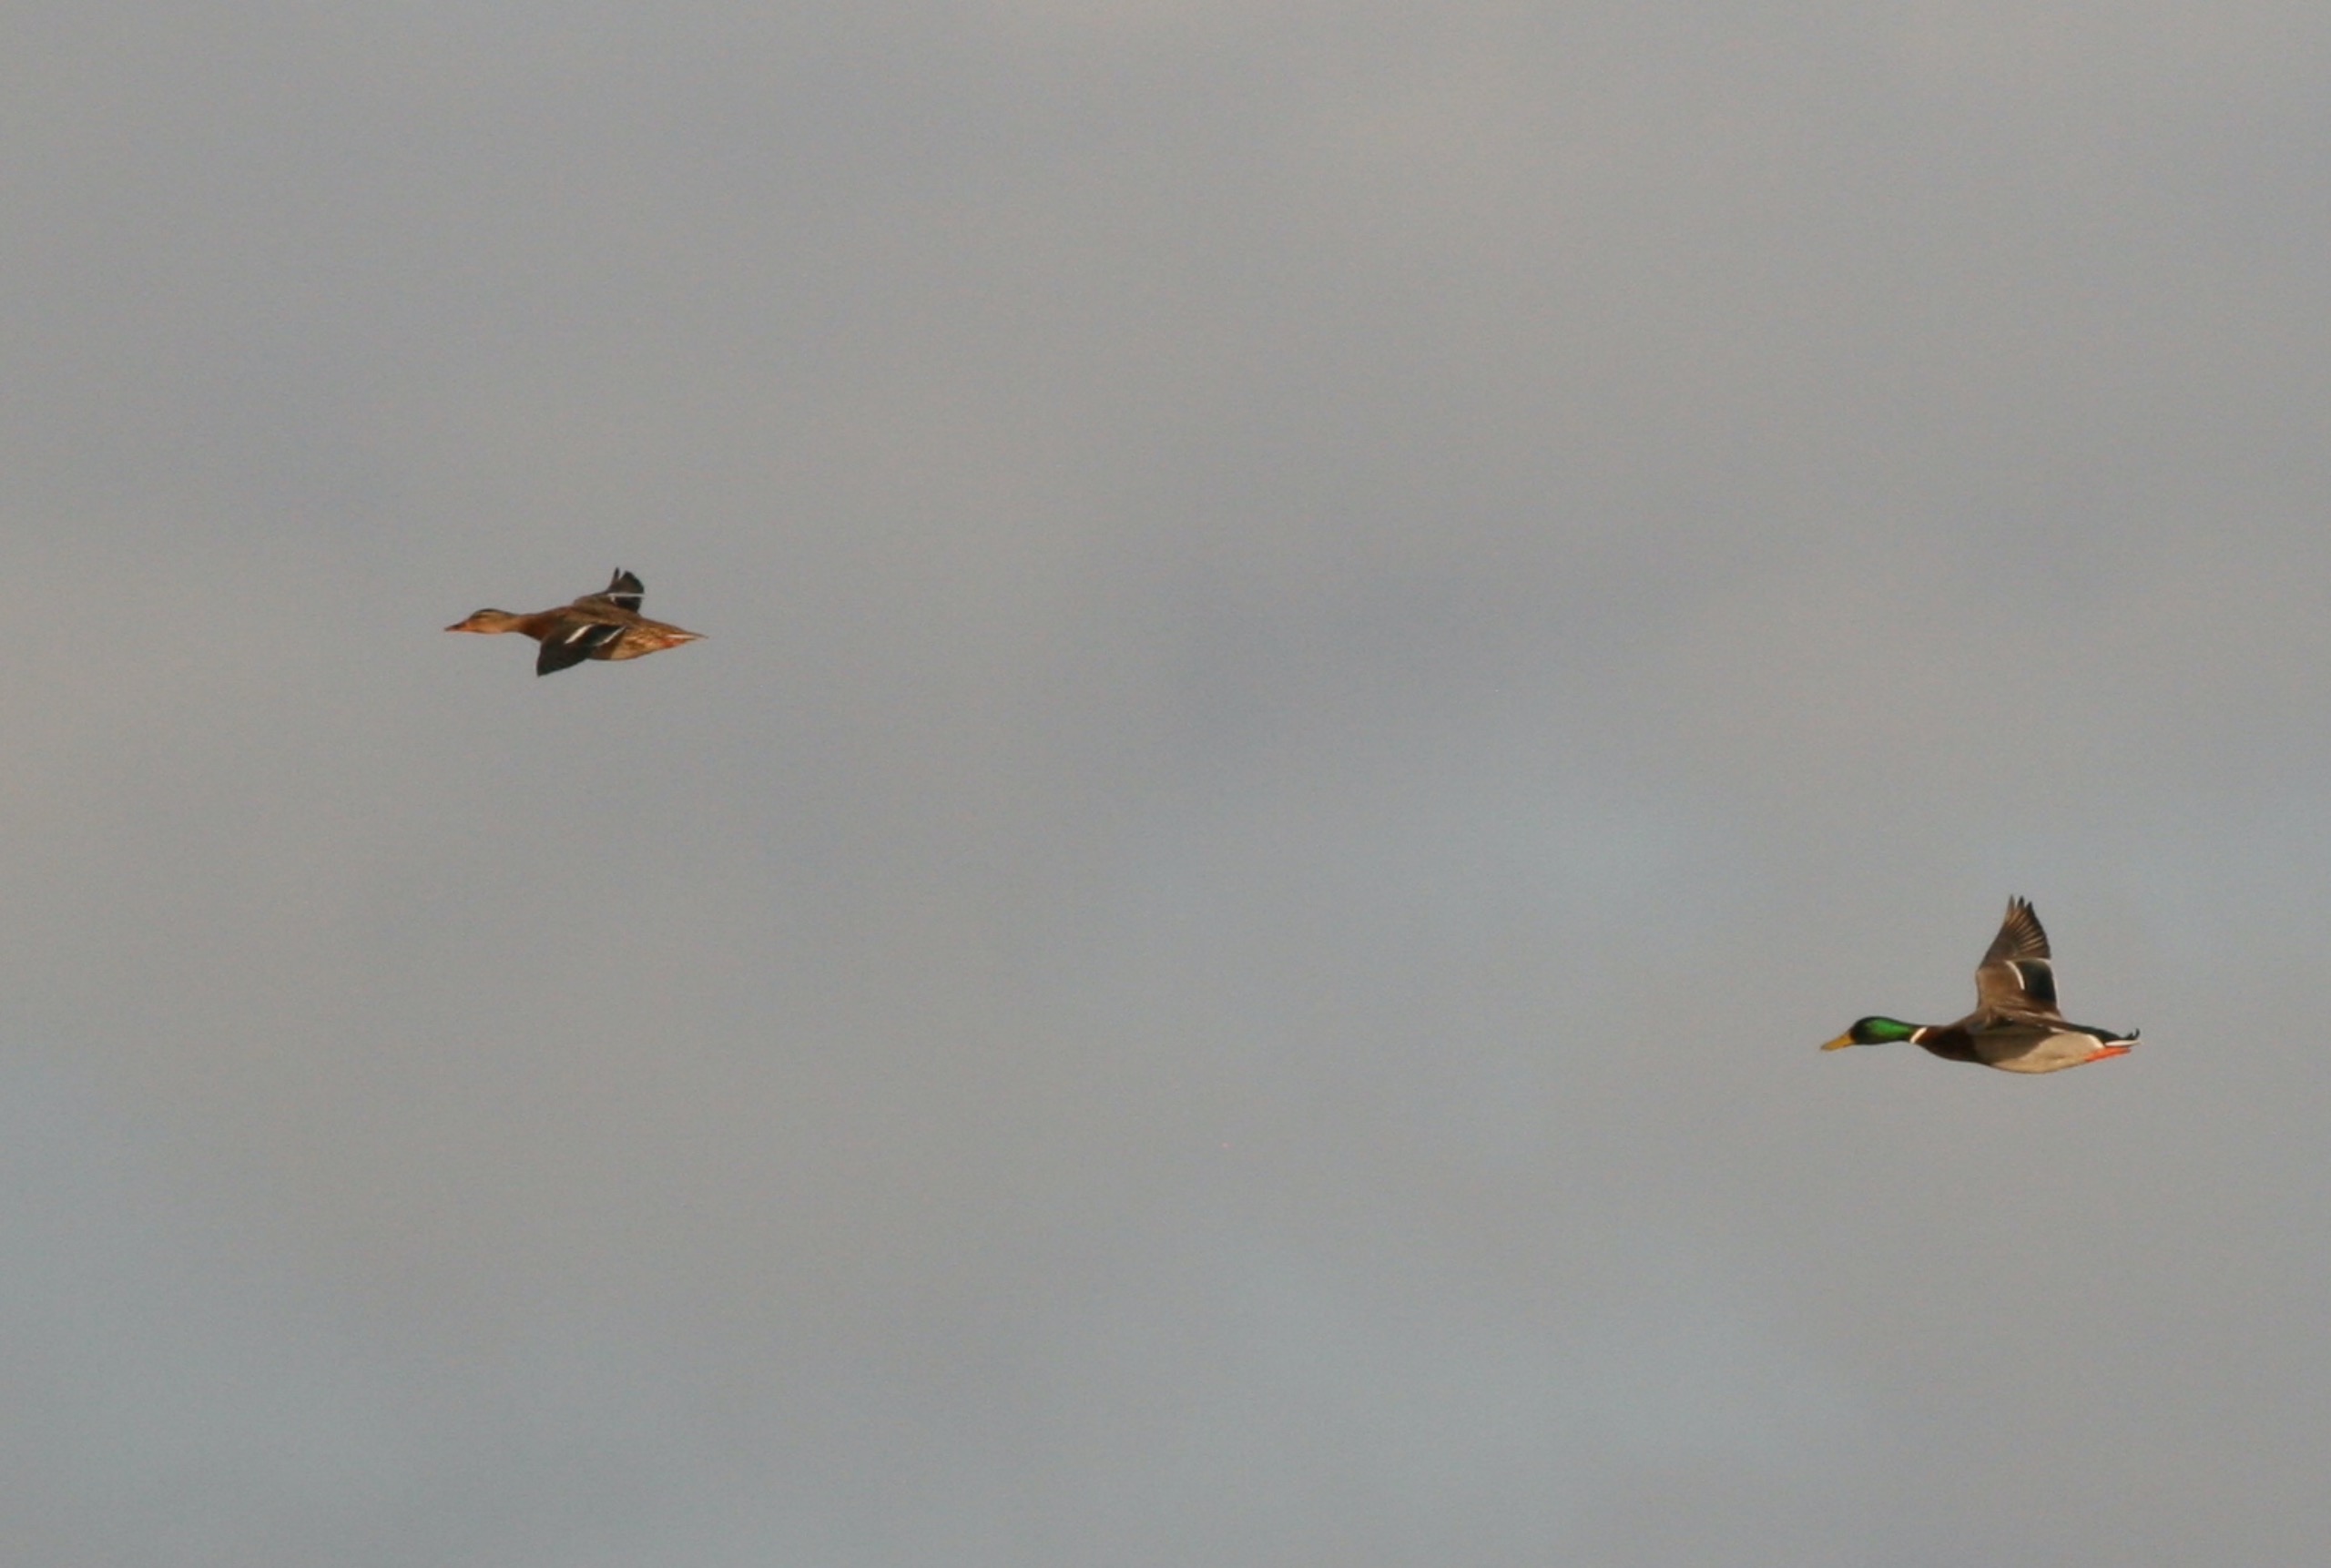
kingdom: Animalia
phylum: Chordata
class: Aves
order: Anseriformes
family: Anatidae
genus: Anas
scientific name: Anas platyrhynchos
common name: Gråand
